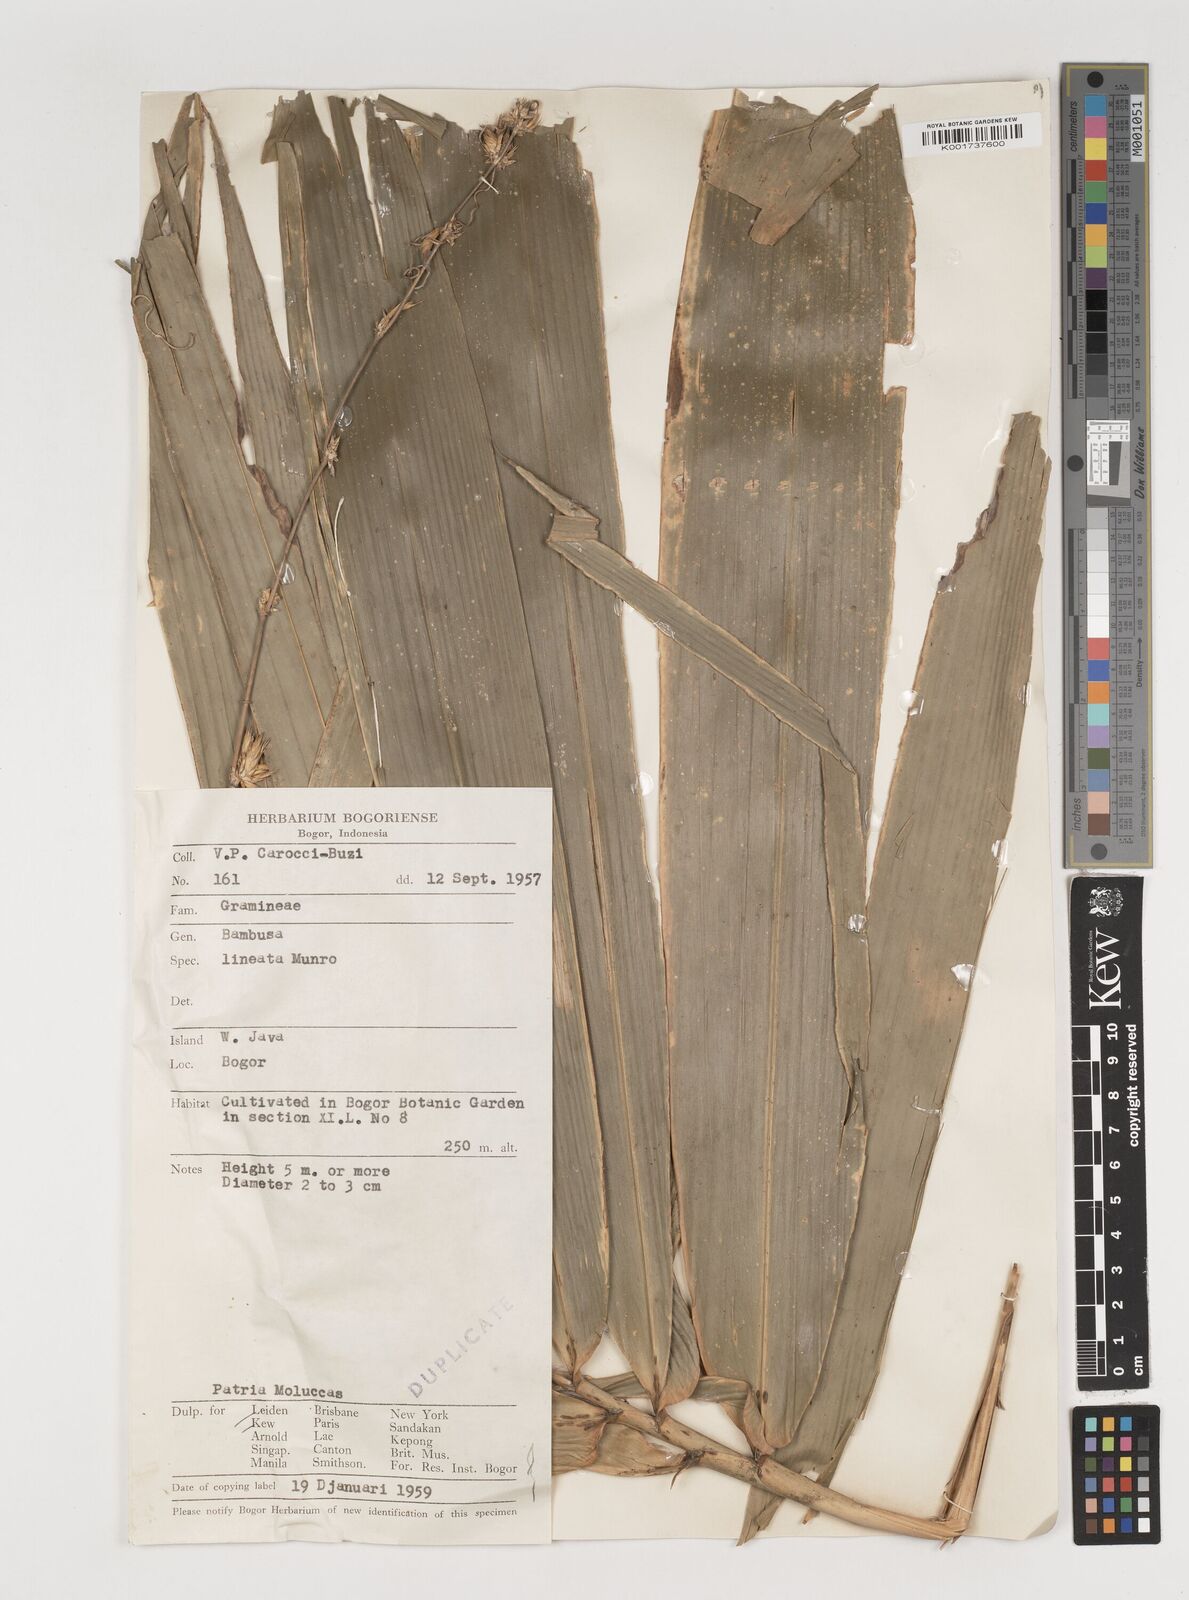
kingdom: Plantae
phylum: Tracheophyta
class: Liliopsida
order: Poales
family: Poaceae
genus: Neololeba
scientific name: Neololeba
